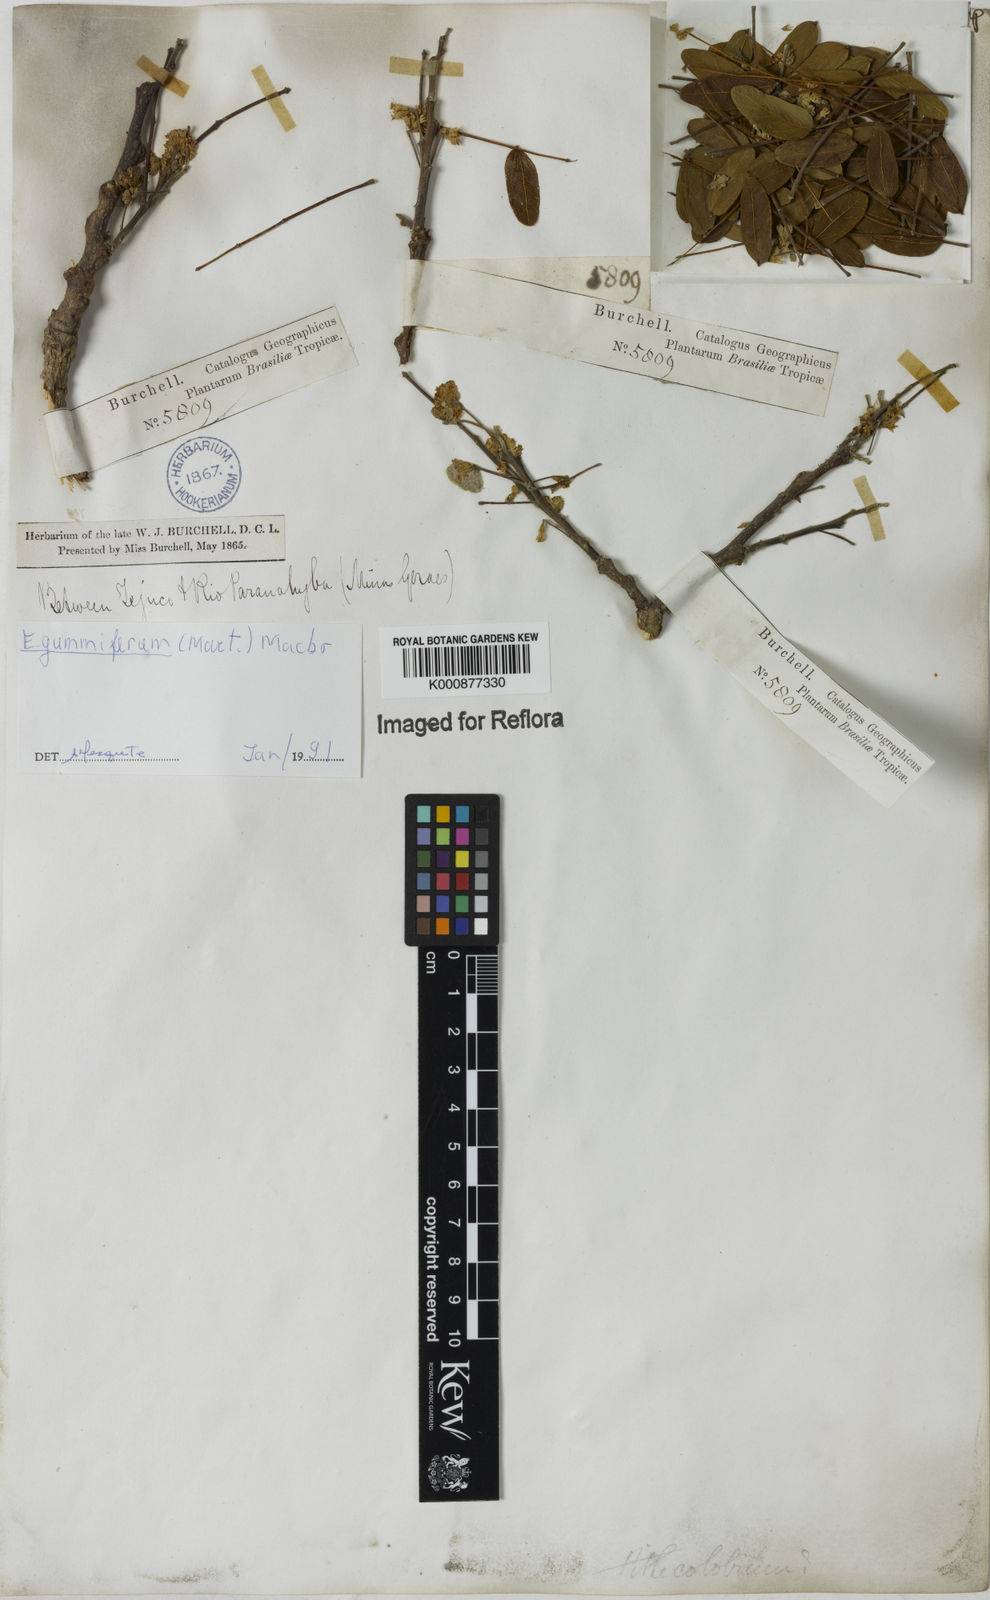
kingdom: Plantae
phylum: Tracheophyta
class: Magnoliopsida
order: Fabales
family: Fabaceae
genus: Enterolobium
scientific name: Enterolobium gummiferum
